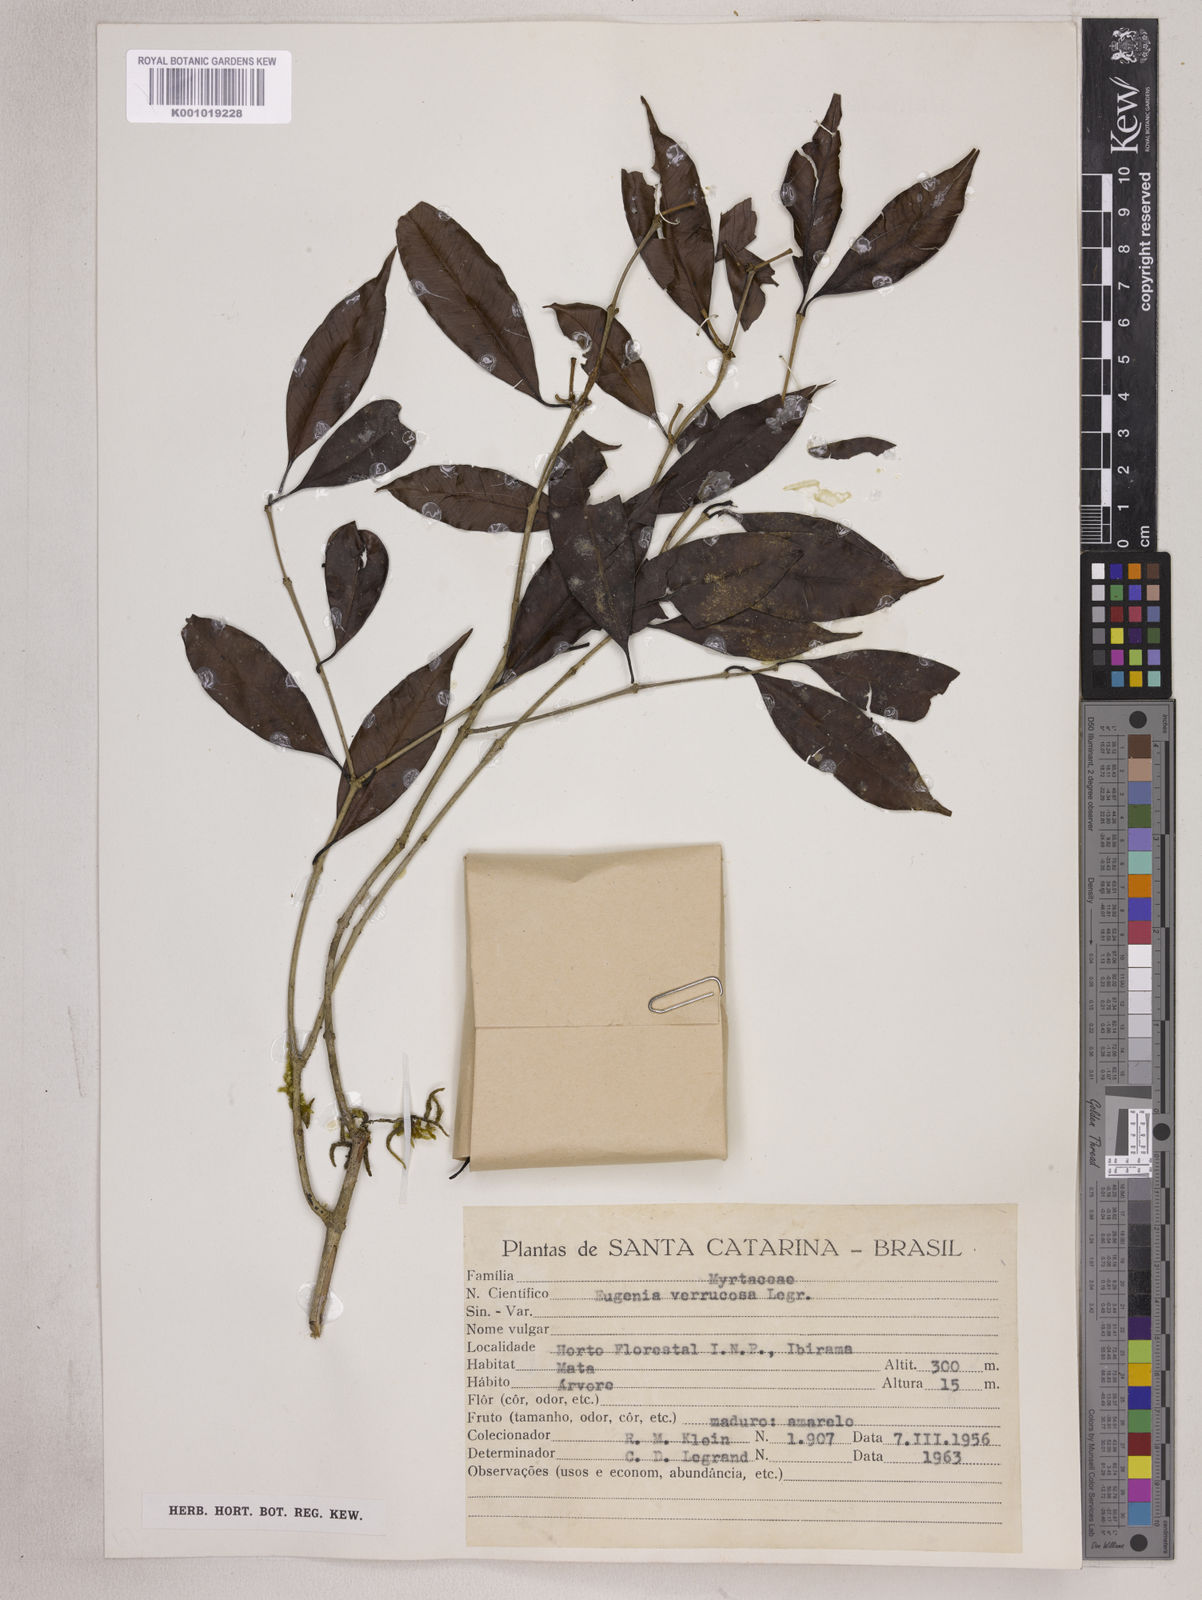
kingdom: Plantae
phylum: Tracheophyta
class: Magnoliopsida
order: Myrtales
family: Myrtaceae
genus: Eugenia
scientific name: Eugenia neoverrucosa
